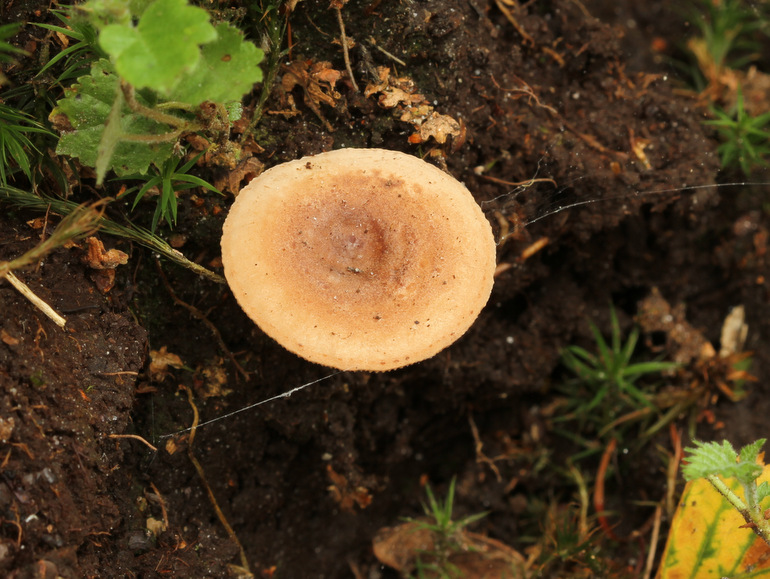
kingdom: Fungi
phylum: Basidiomycota
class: Agaricomycetes
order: Russulales
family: Russulaceae
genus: Lactarius
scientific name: Lactarius quietus
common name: ege-mælkehat
